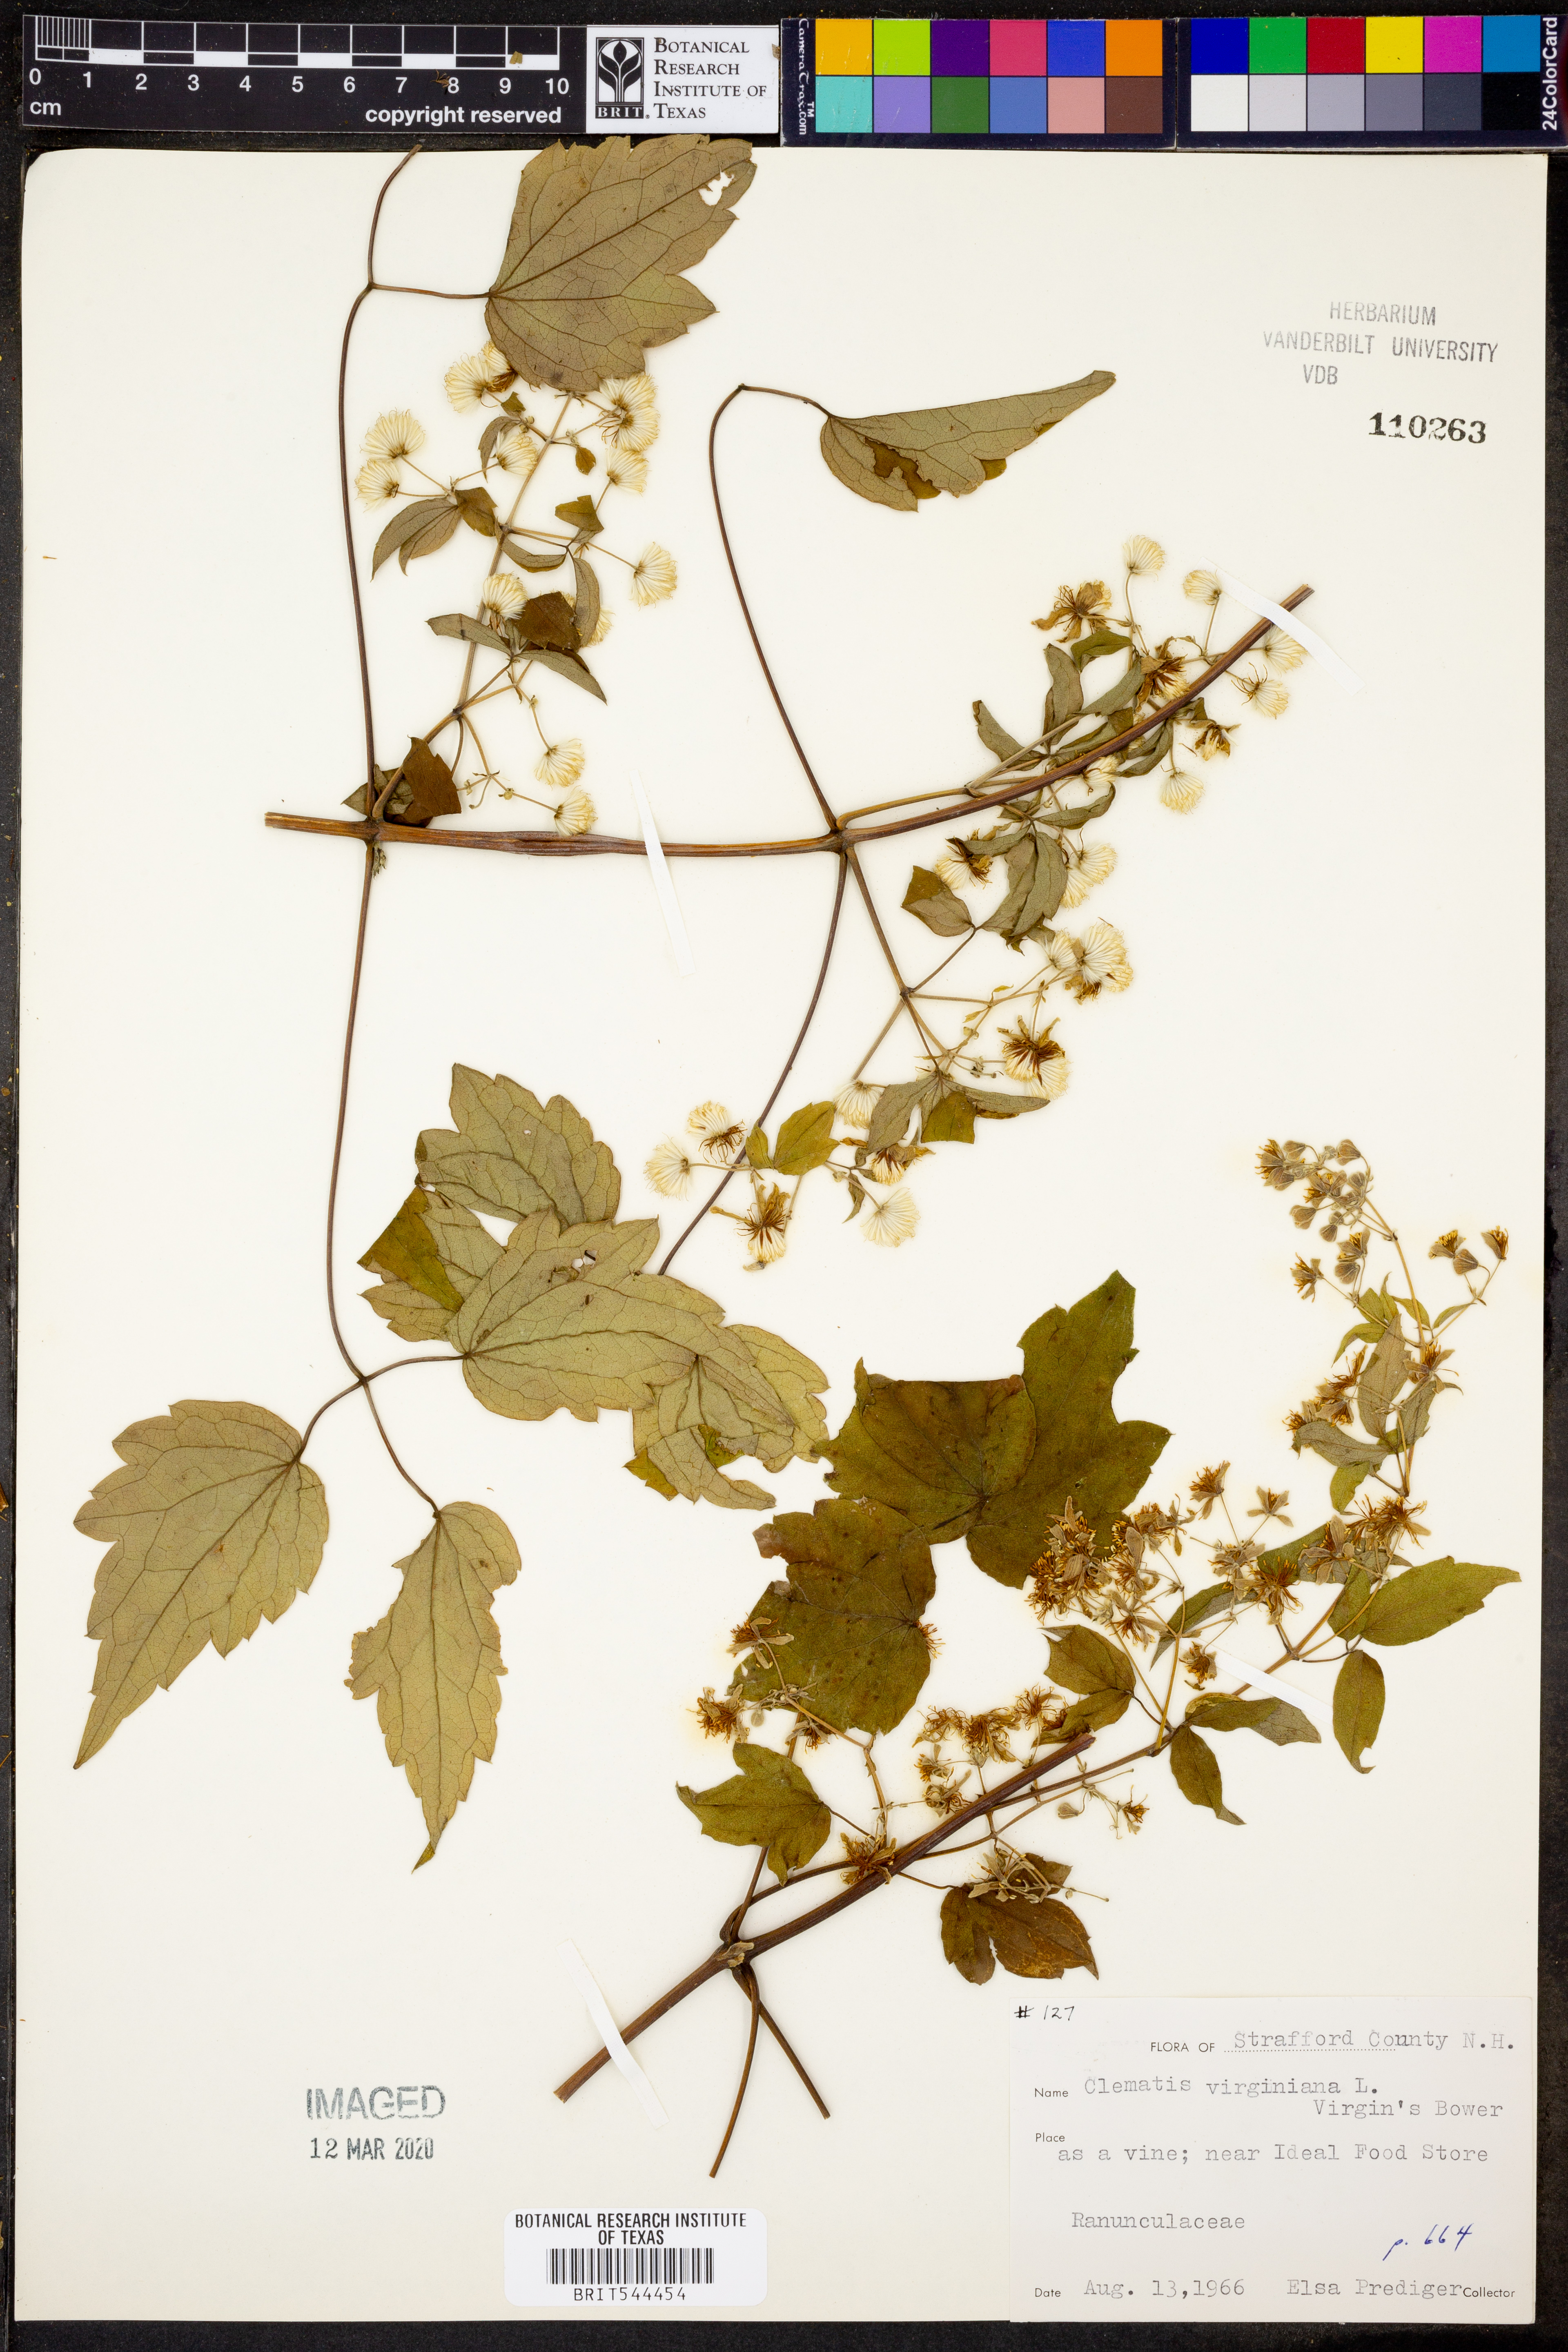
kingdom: Plantae
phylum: Tracheophyta
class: Magnoliopsida
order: Ranunculales
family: Ranunculaceae
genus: Clematis
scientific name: Clematis virginiana
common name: Virgin's-bower
